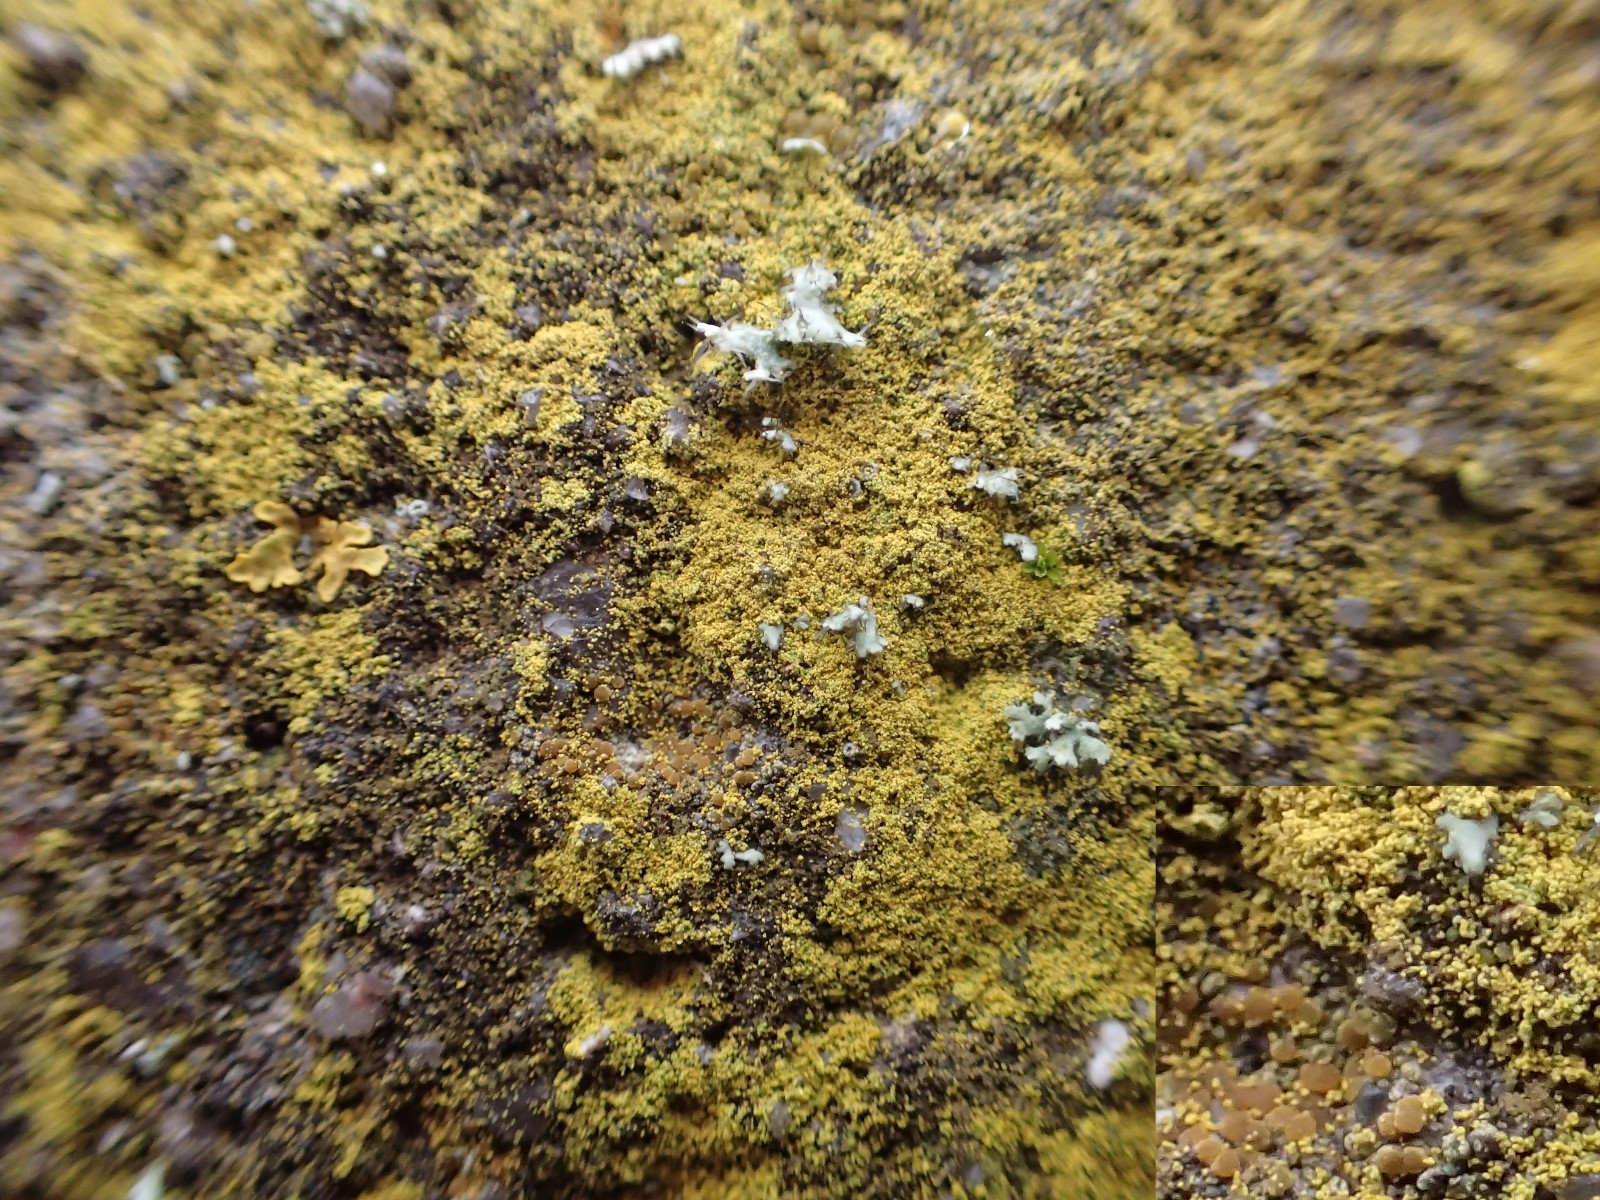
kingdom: Fungi
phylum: Ascomycota
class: Candelariomycetes
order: Candelariales
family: Candelariaceae
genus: Candelariella
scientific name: Candelariella vitellina
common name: almindelig æggeblommelav
